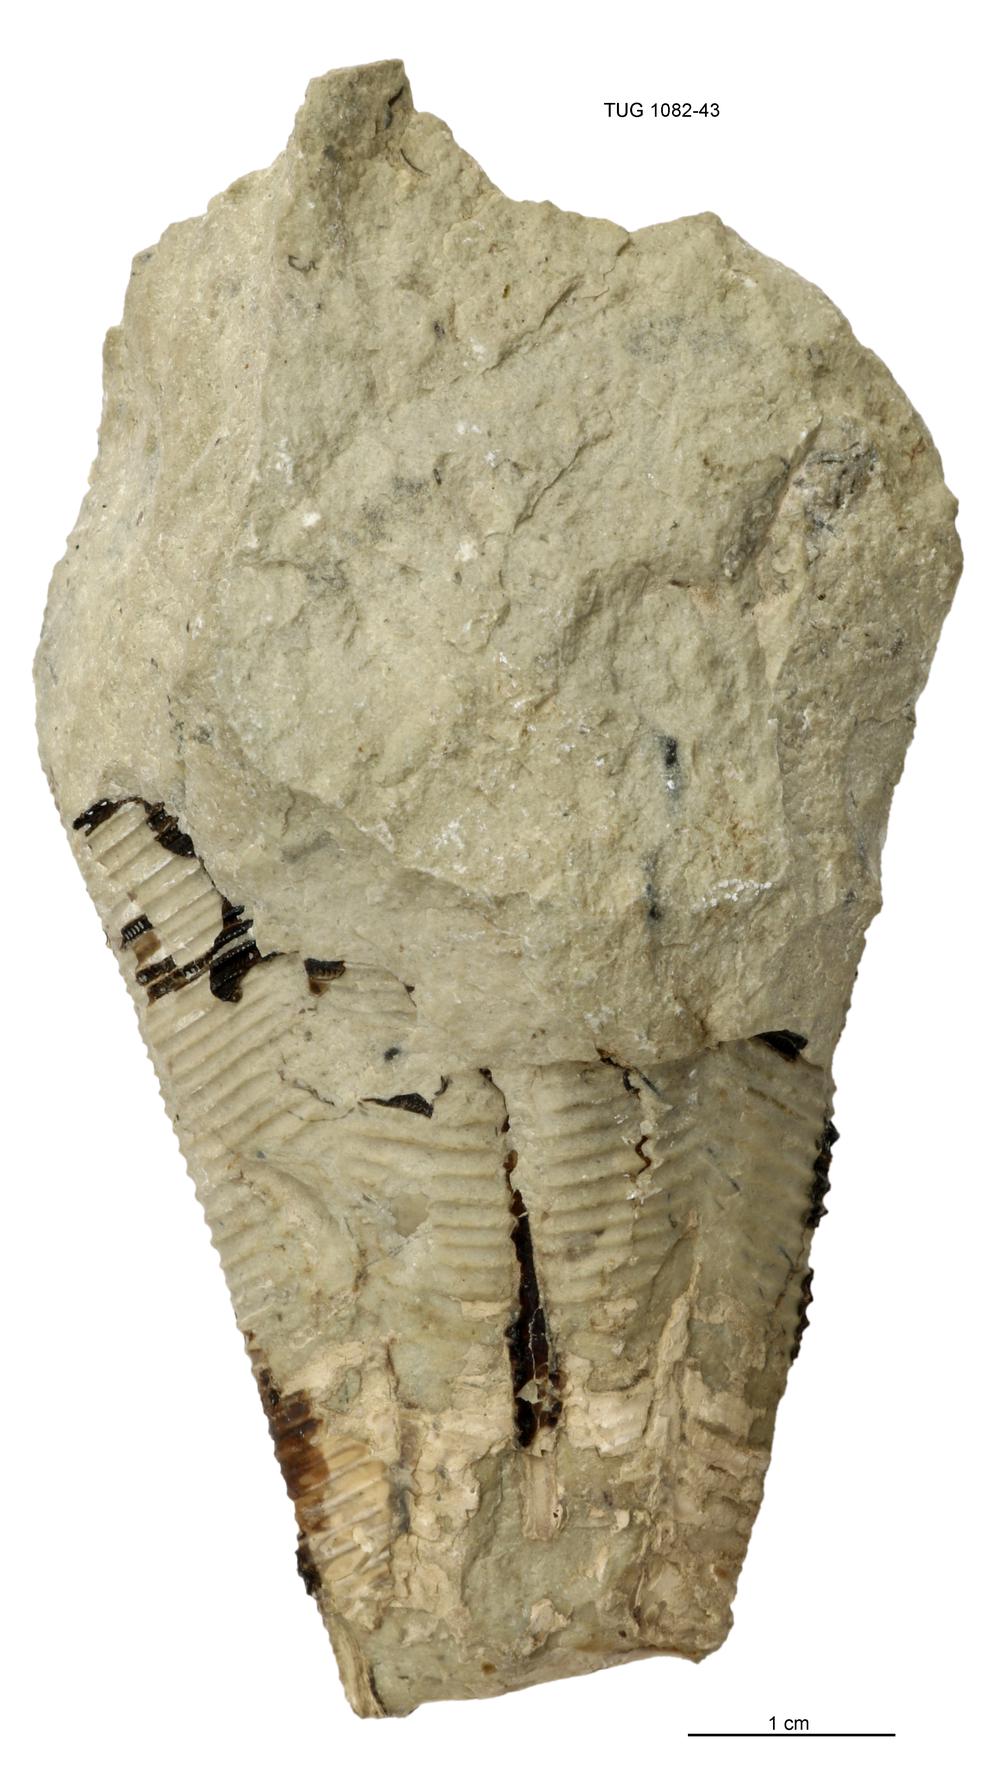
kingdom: Animalia
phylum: Cnidaria
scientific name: Cnidaria
